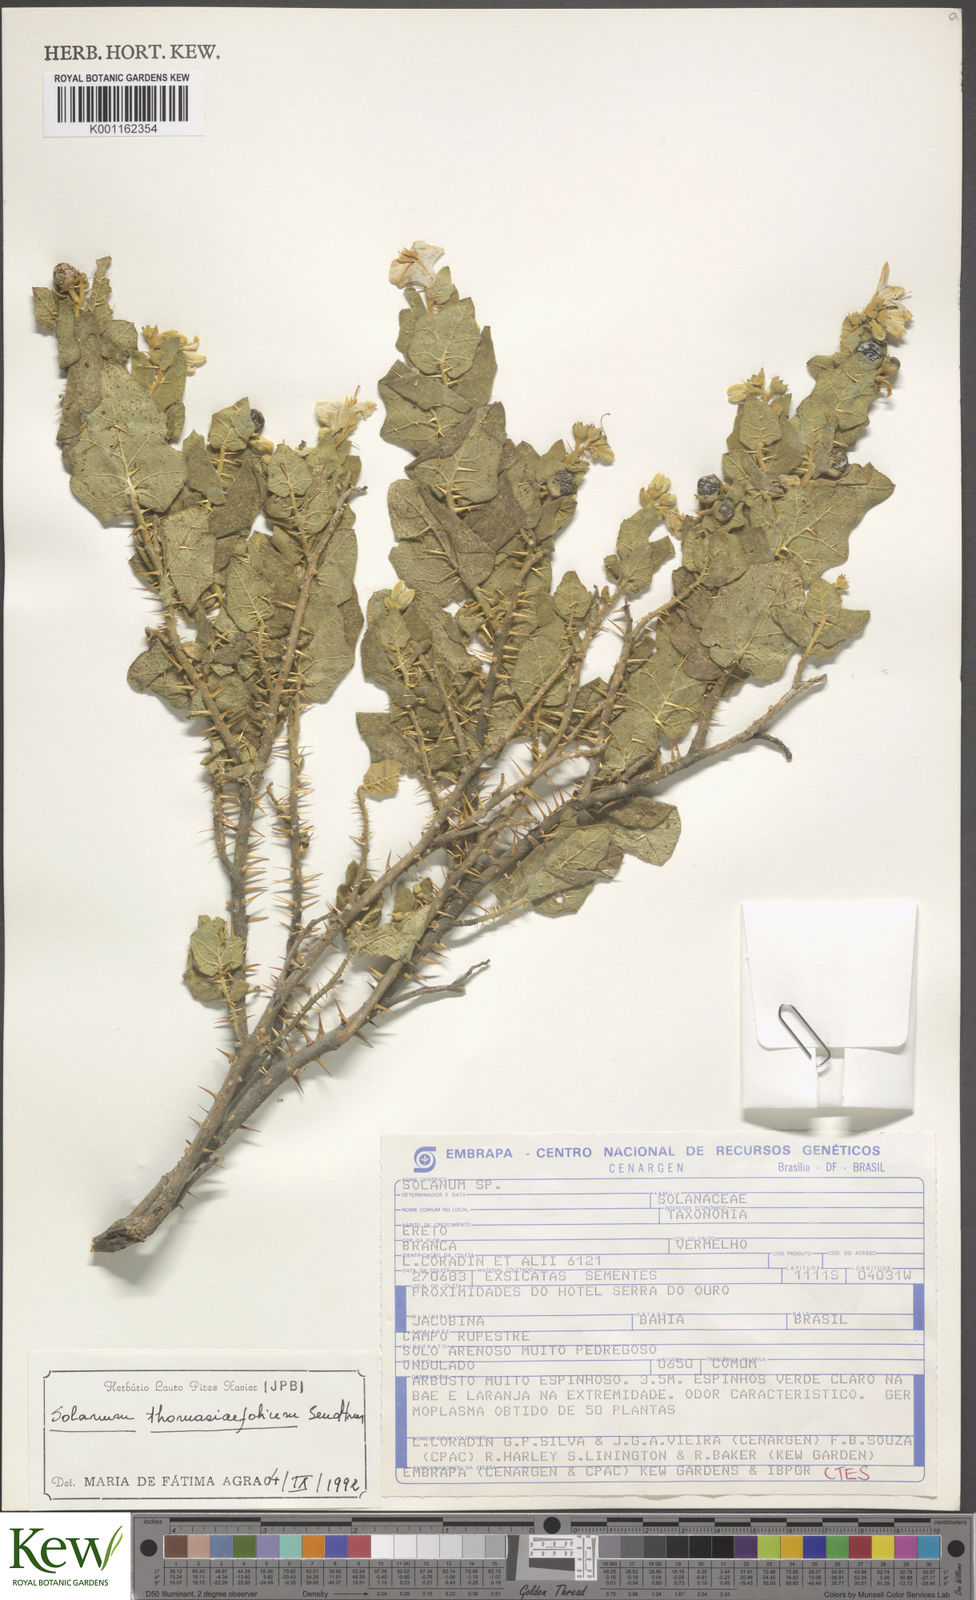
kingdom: Plantae
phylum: Tracheophyta
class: Magnoliopsida
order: Solanales
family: Solanaceae
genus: Solanum
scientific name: Solanum thomasiifolium
